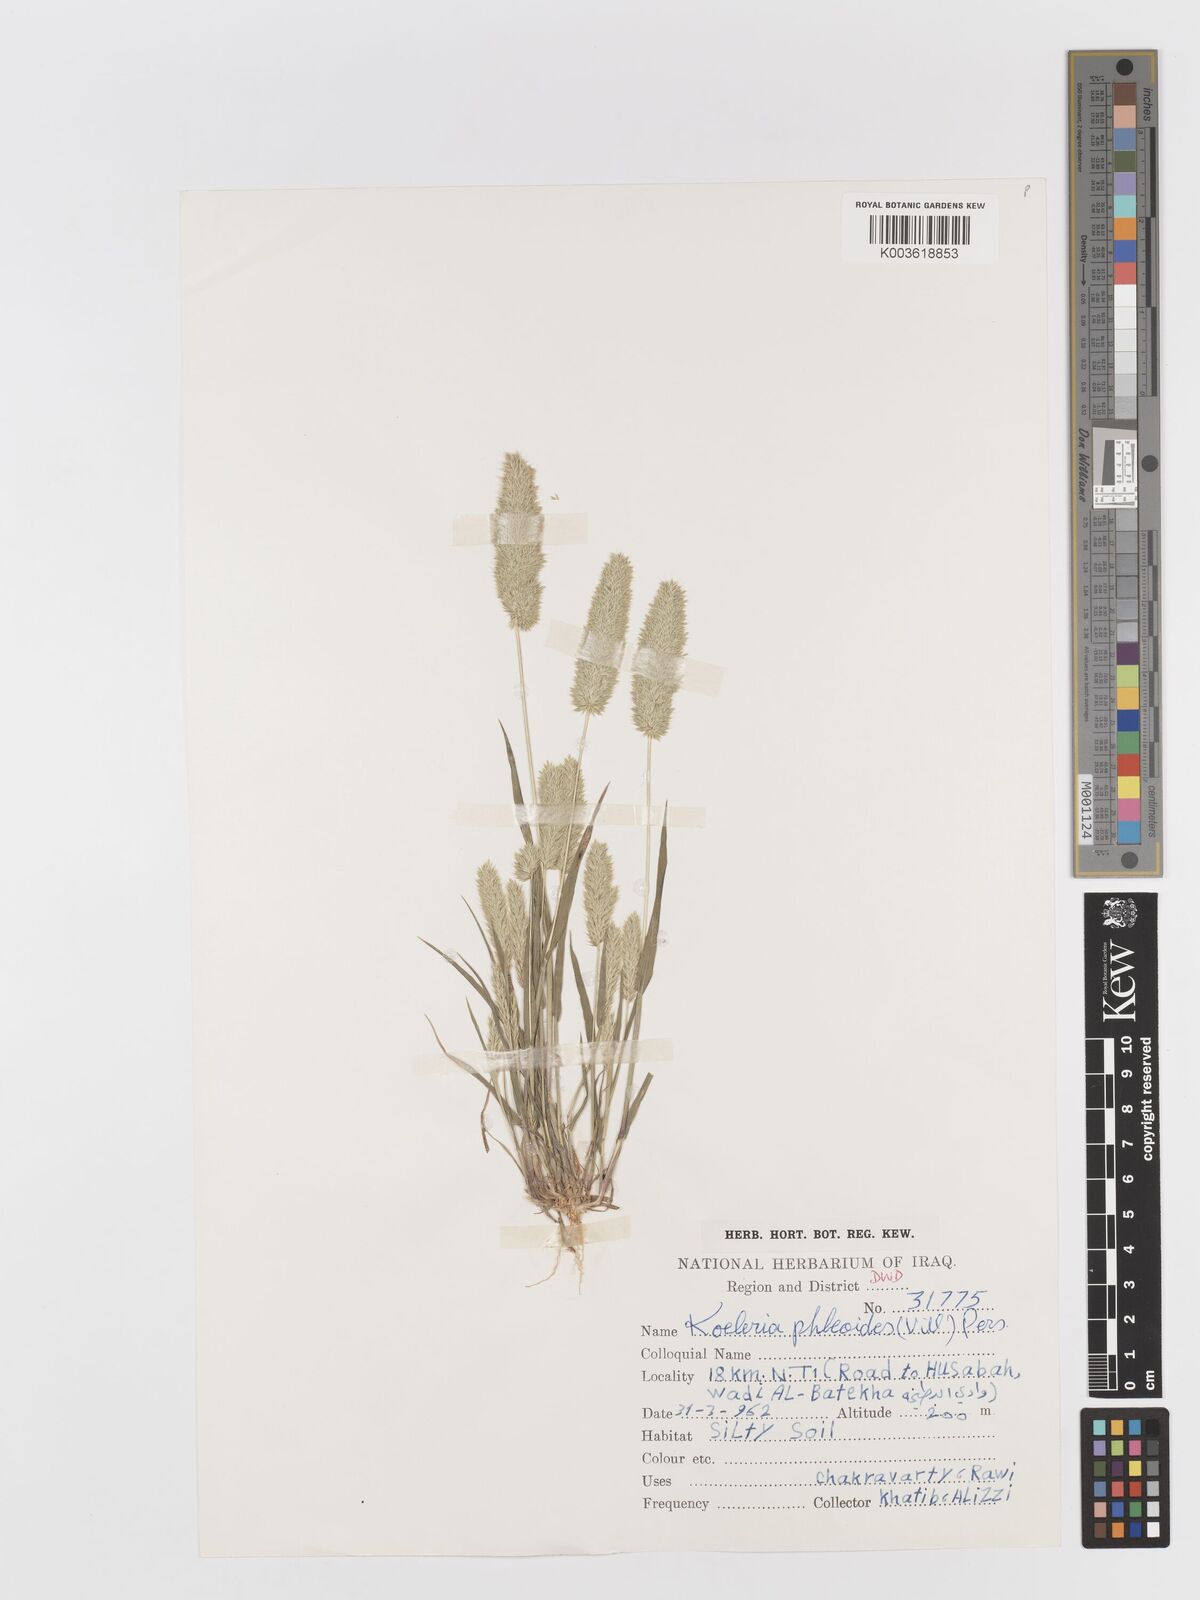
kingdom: Plantae
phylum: Tracheophyta
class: Liliopsida
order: Poales
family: Poaceae
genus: Rostraria
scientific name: Rostraria cristata
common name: Mediterranean hair-grass
